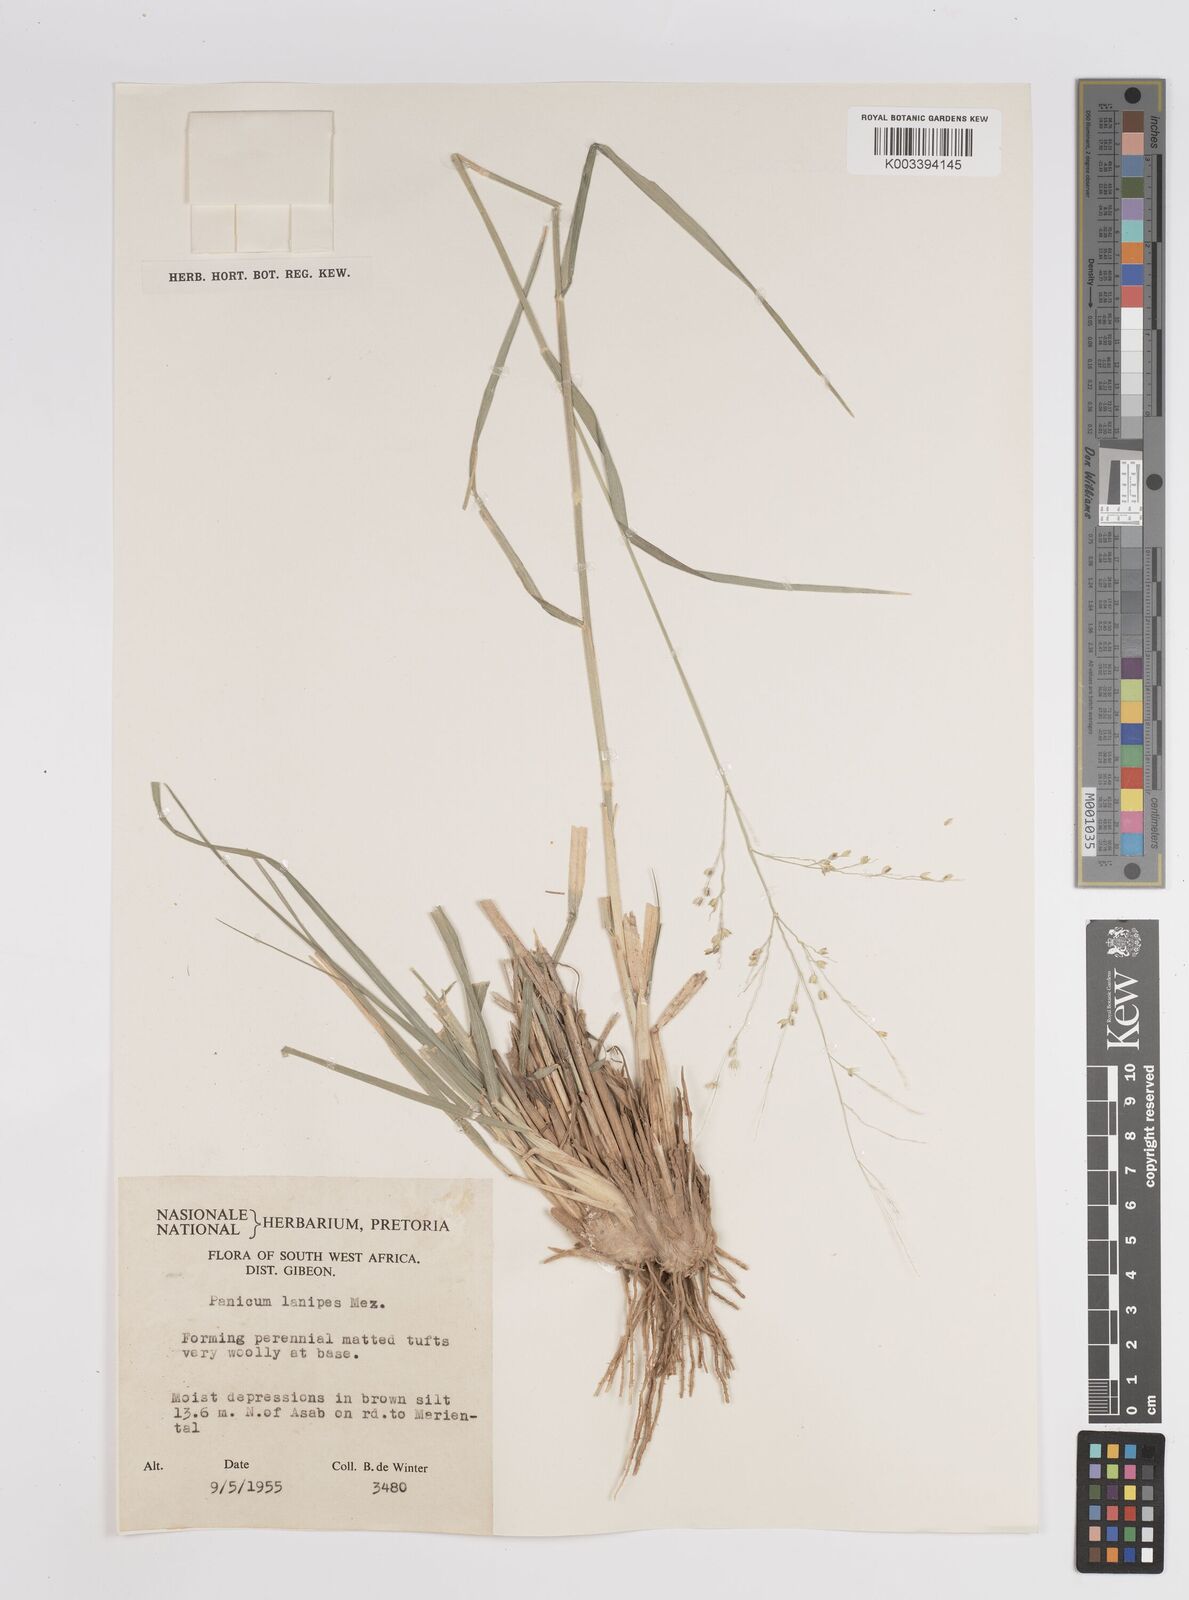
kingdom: Plantae
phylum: Tracheophyta
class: Liliopsida
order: Poales
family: Poaceae
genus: Panicum
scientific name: Panicum lanipes
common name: Wolvoet panicum
